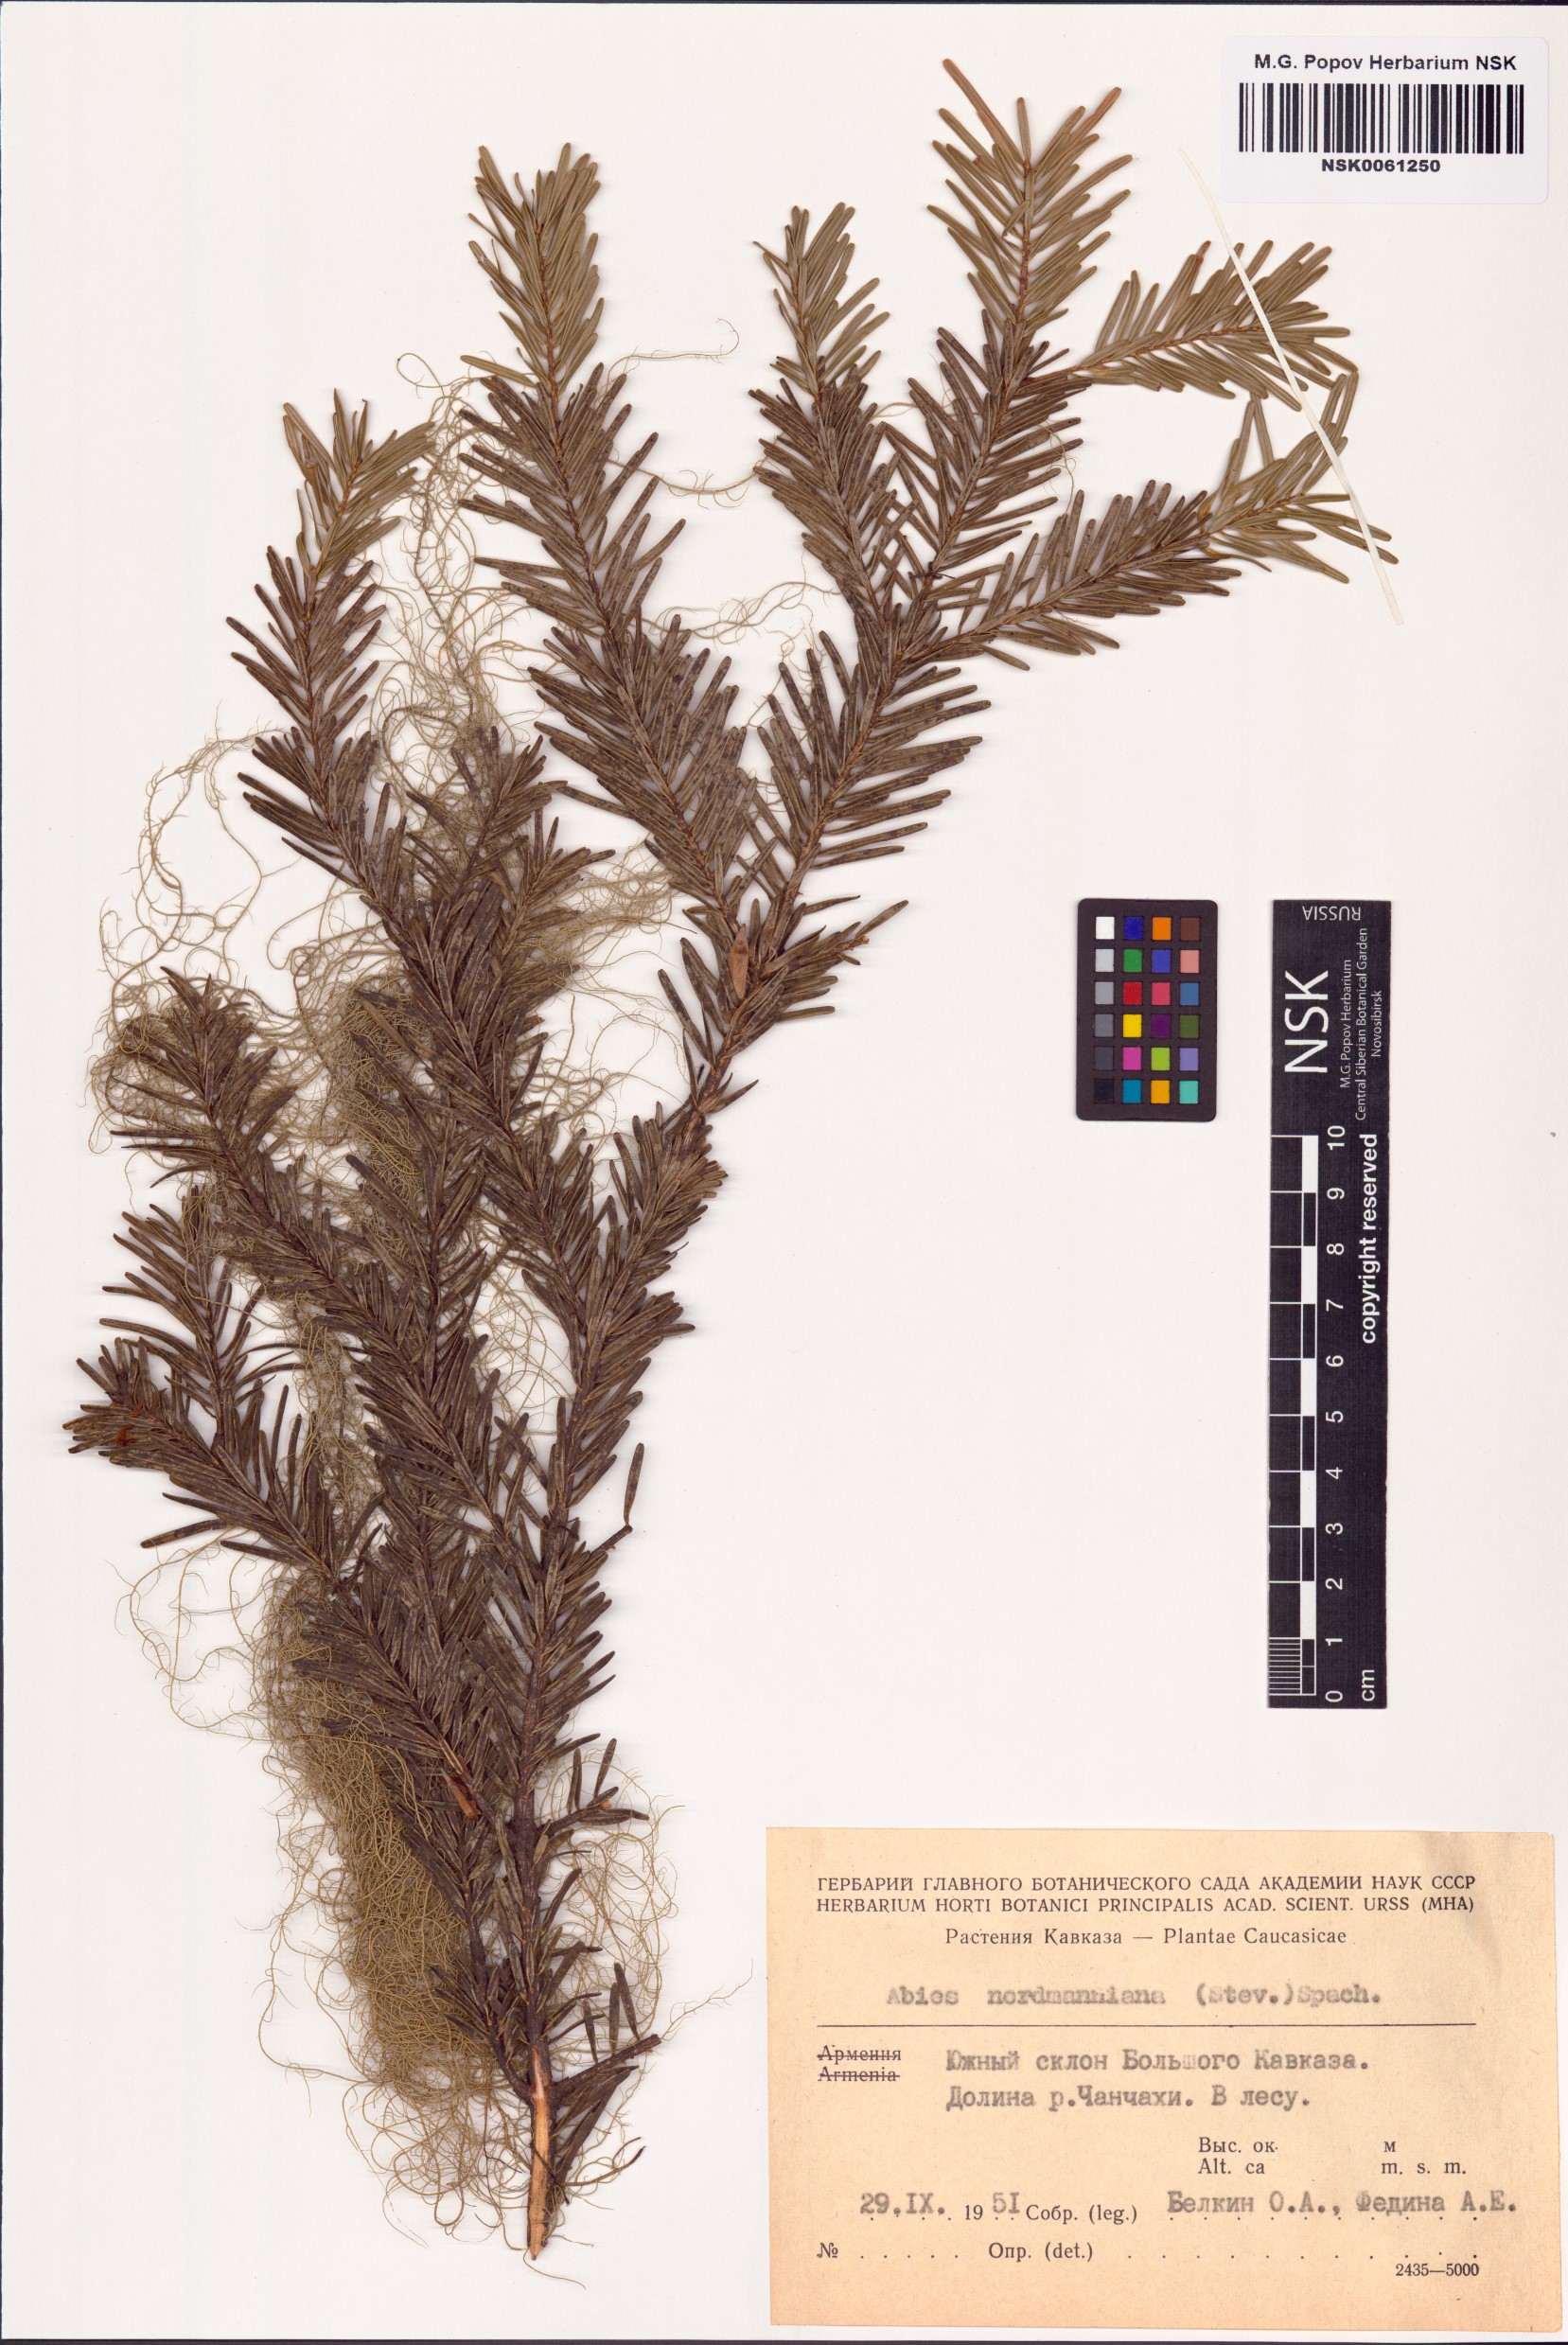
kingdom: Plantae
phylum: Tracheophyta
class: Pinopsida
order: Pinales
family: Pinaceae
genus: Abies
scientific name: Abies nordmanniana
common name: Caucasian fir
